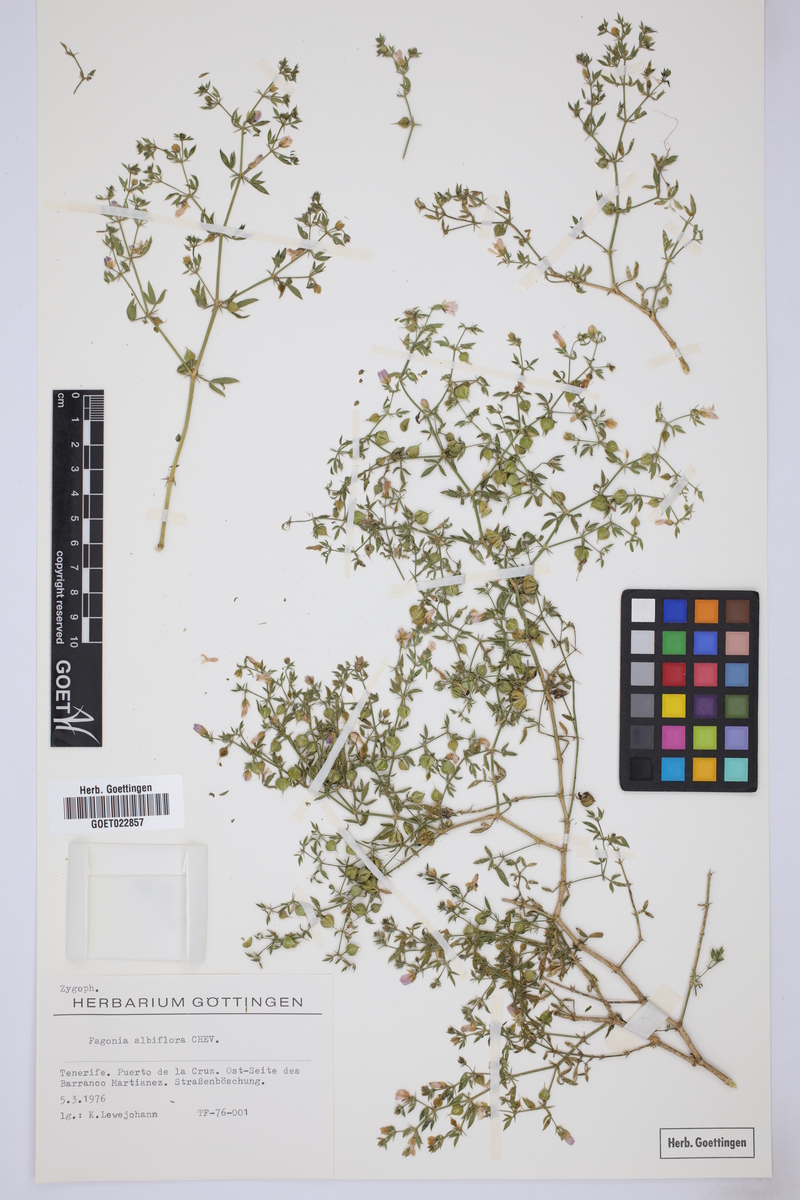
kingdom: Plantae
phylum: Tracheophyta
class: Magnoliopsida
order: Zygophyllales
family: Zygophyllaceae
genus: Fagonia
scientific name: Fagonia scabra
